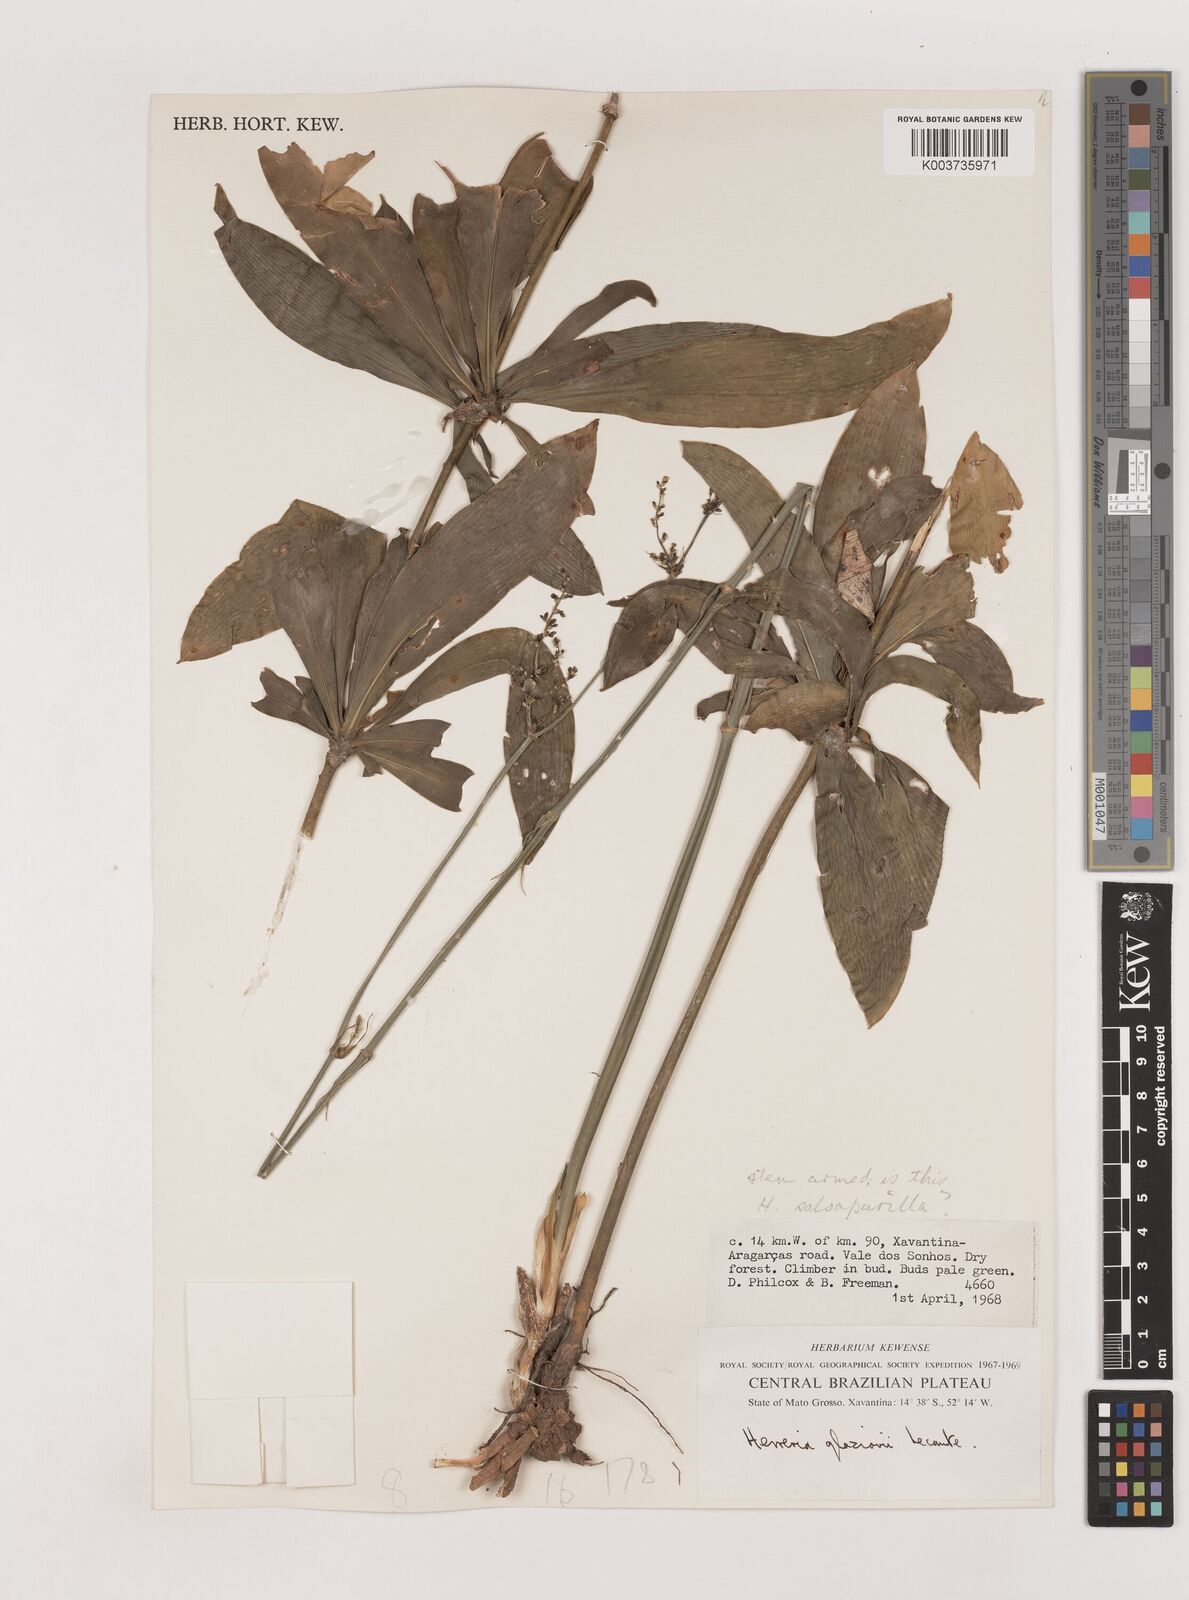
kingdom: Plantae
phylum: Tracheophyta
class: Liliopsida
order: Asparagales
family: Asparagaceae
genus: Herreria
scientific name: Herreria glaziovii
